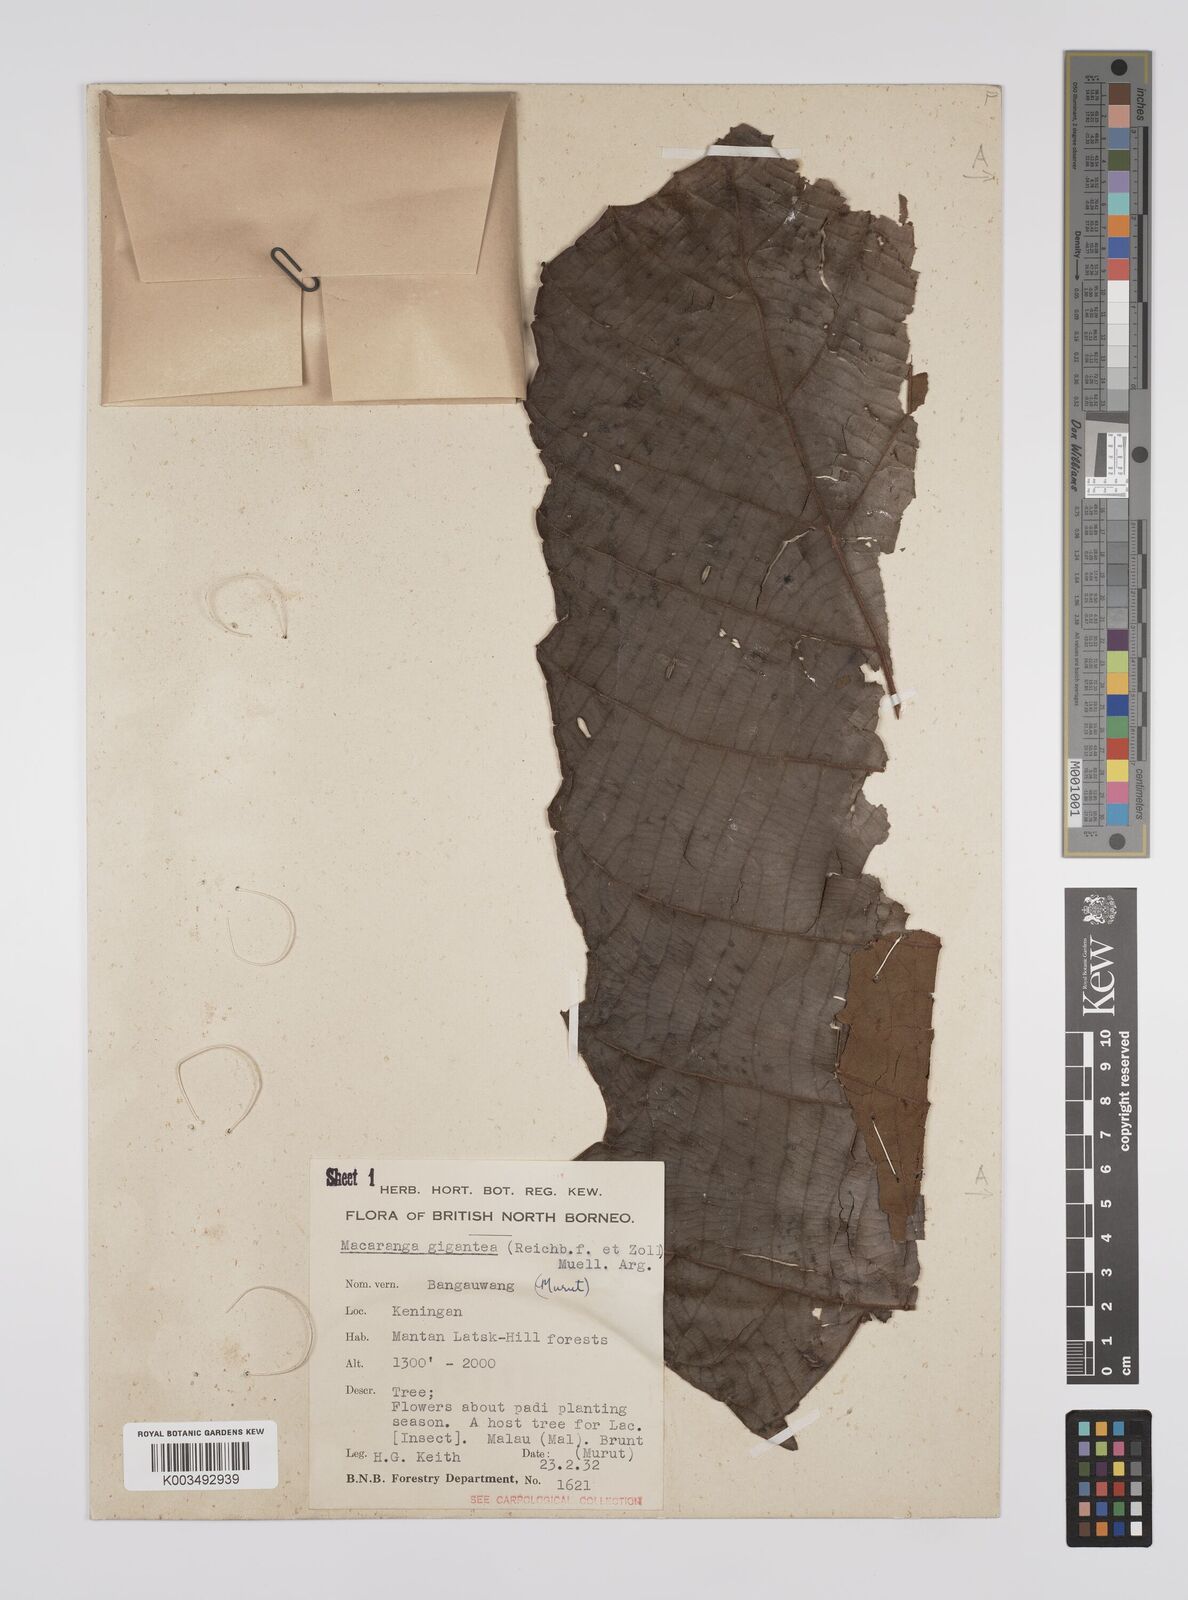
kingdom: Plantae
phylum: Tracheophyta
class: Magnoliopsida
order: Malpighiales
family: Euphorbiaceae
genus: Macaranga
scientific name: Macaranga gigantea
